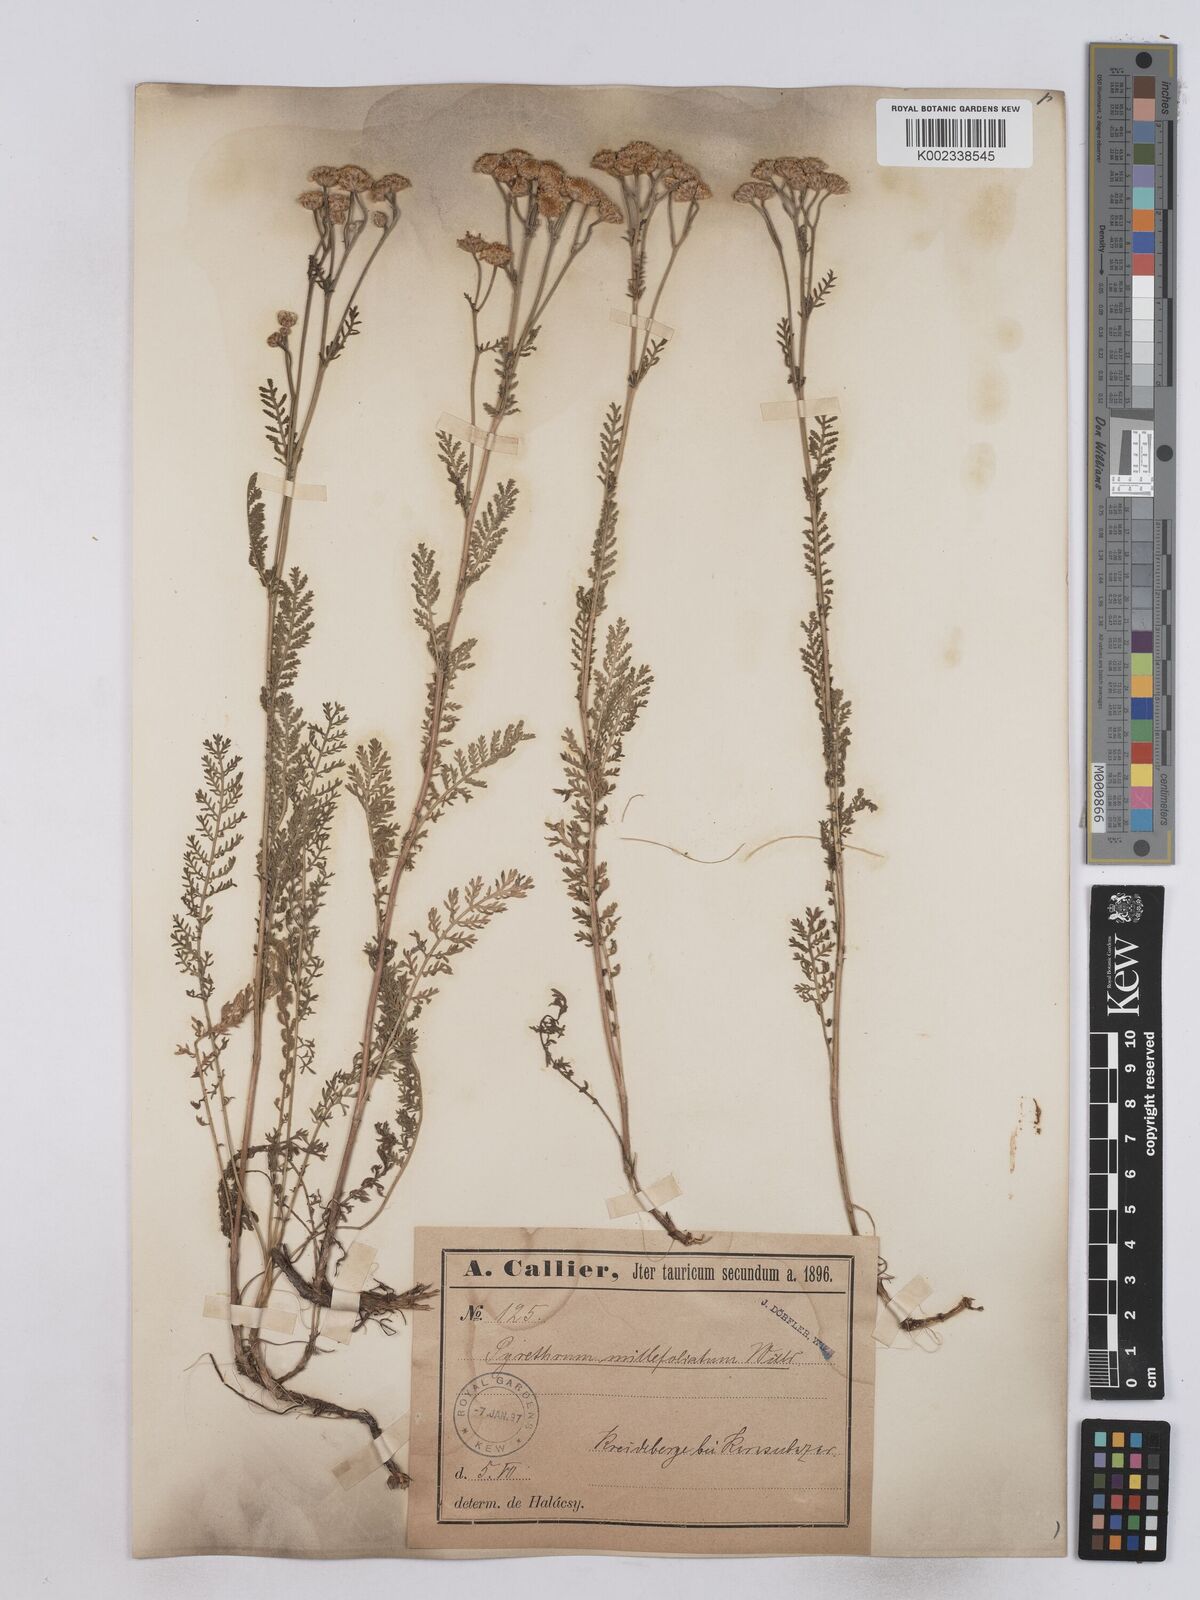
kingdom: Plantae
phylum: Tracheophyta
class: Magnoliopsida
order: Asterales
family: Asteraceae
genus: Tanacetum
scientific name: Tanacetum millefolium
